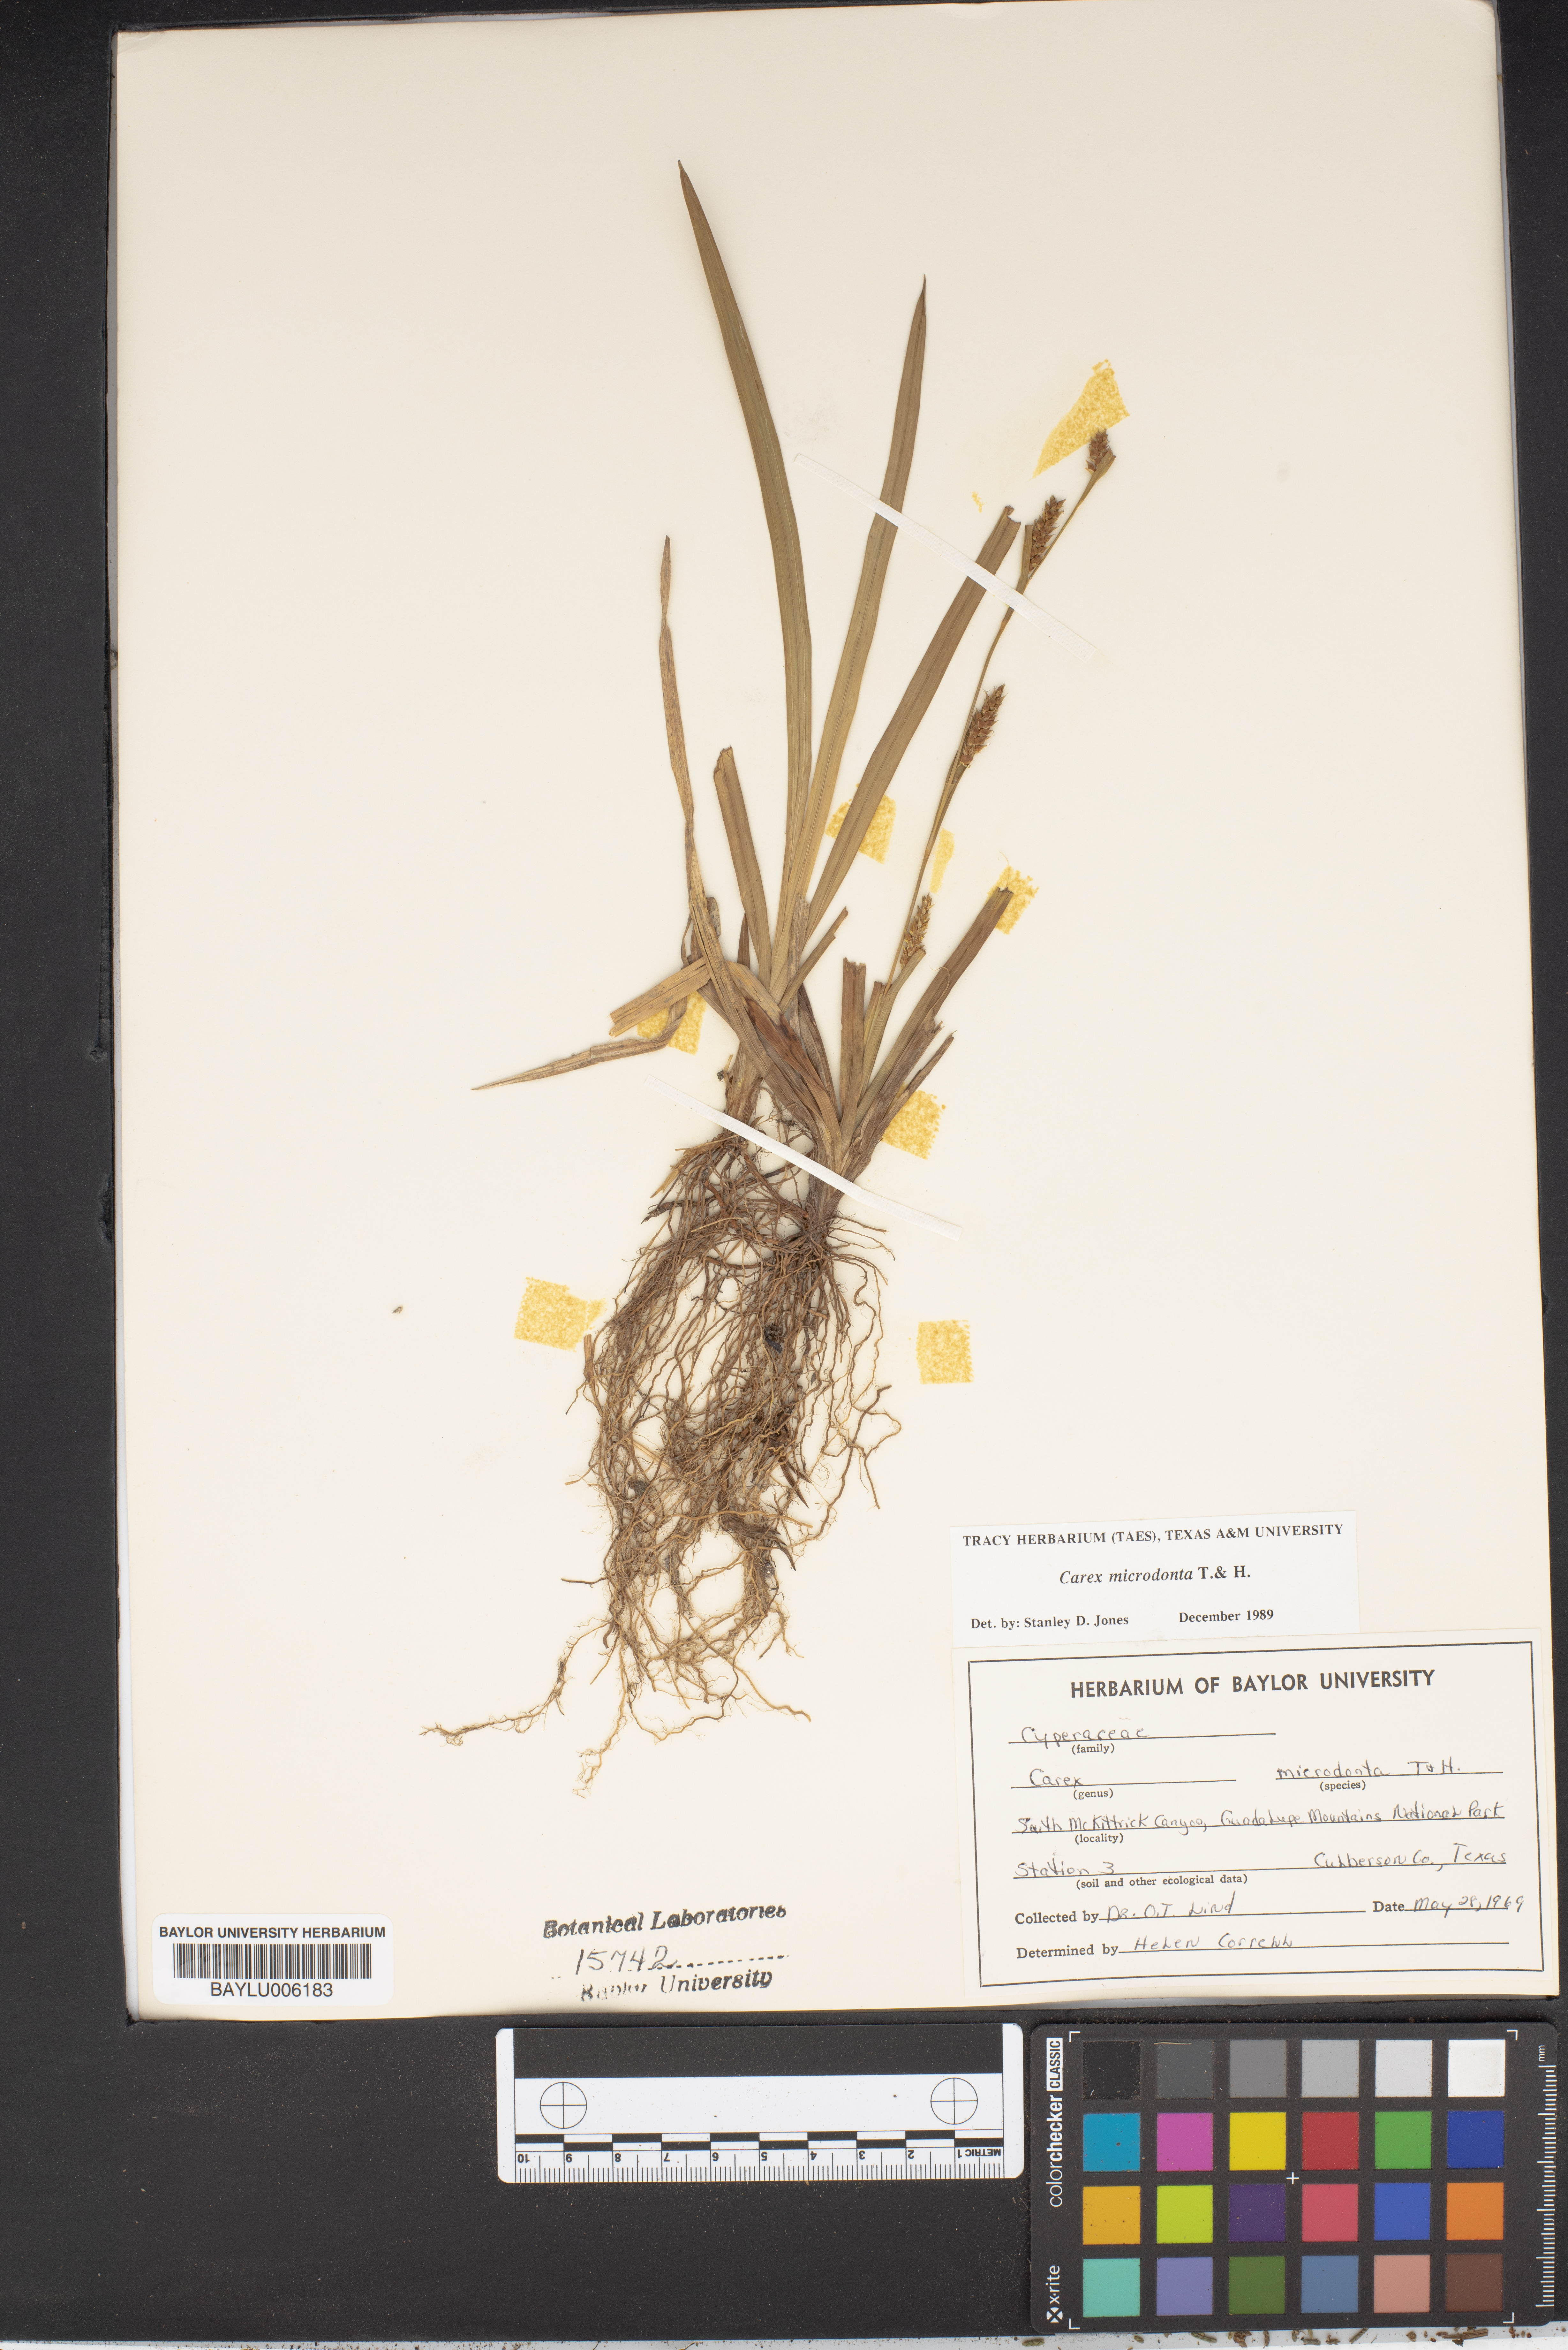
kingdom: Plantae
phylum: Tracheophyta
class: Liliopsida
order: Poales
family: Cyperaceae
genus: Carex
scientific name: Carex microdonta
